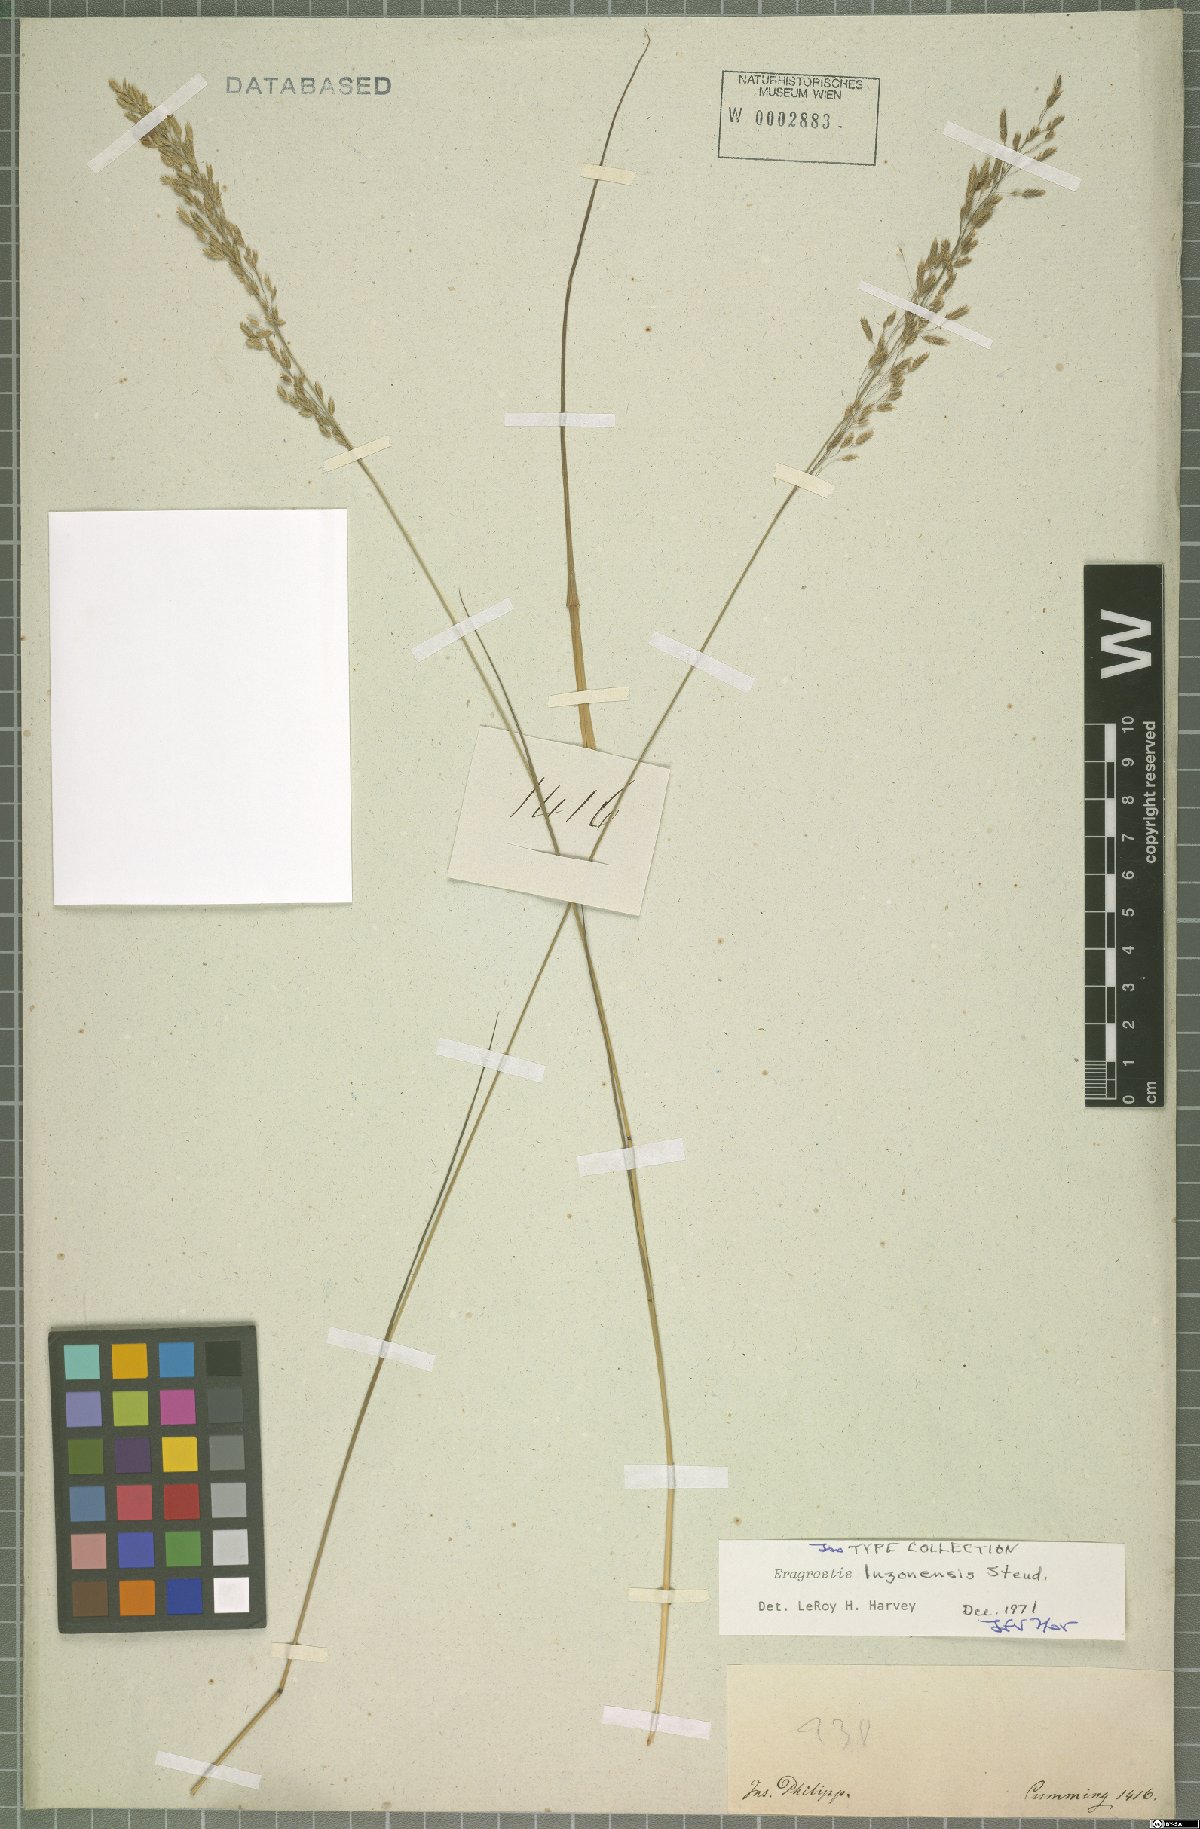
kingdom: Plantae
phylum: Tracheophyta
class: Liliopsida
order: Poales
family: Poaceae
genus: Eragrostis
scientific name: Eragrostis atrovirens
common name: Thalia lovegrass
